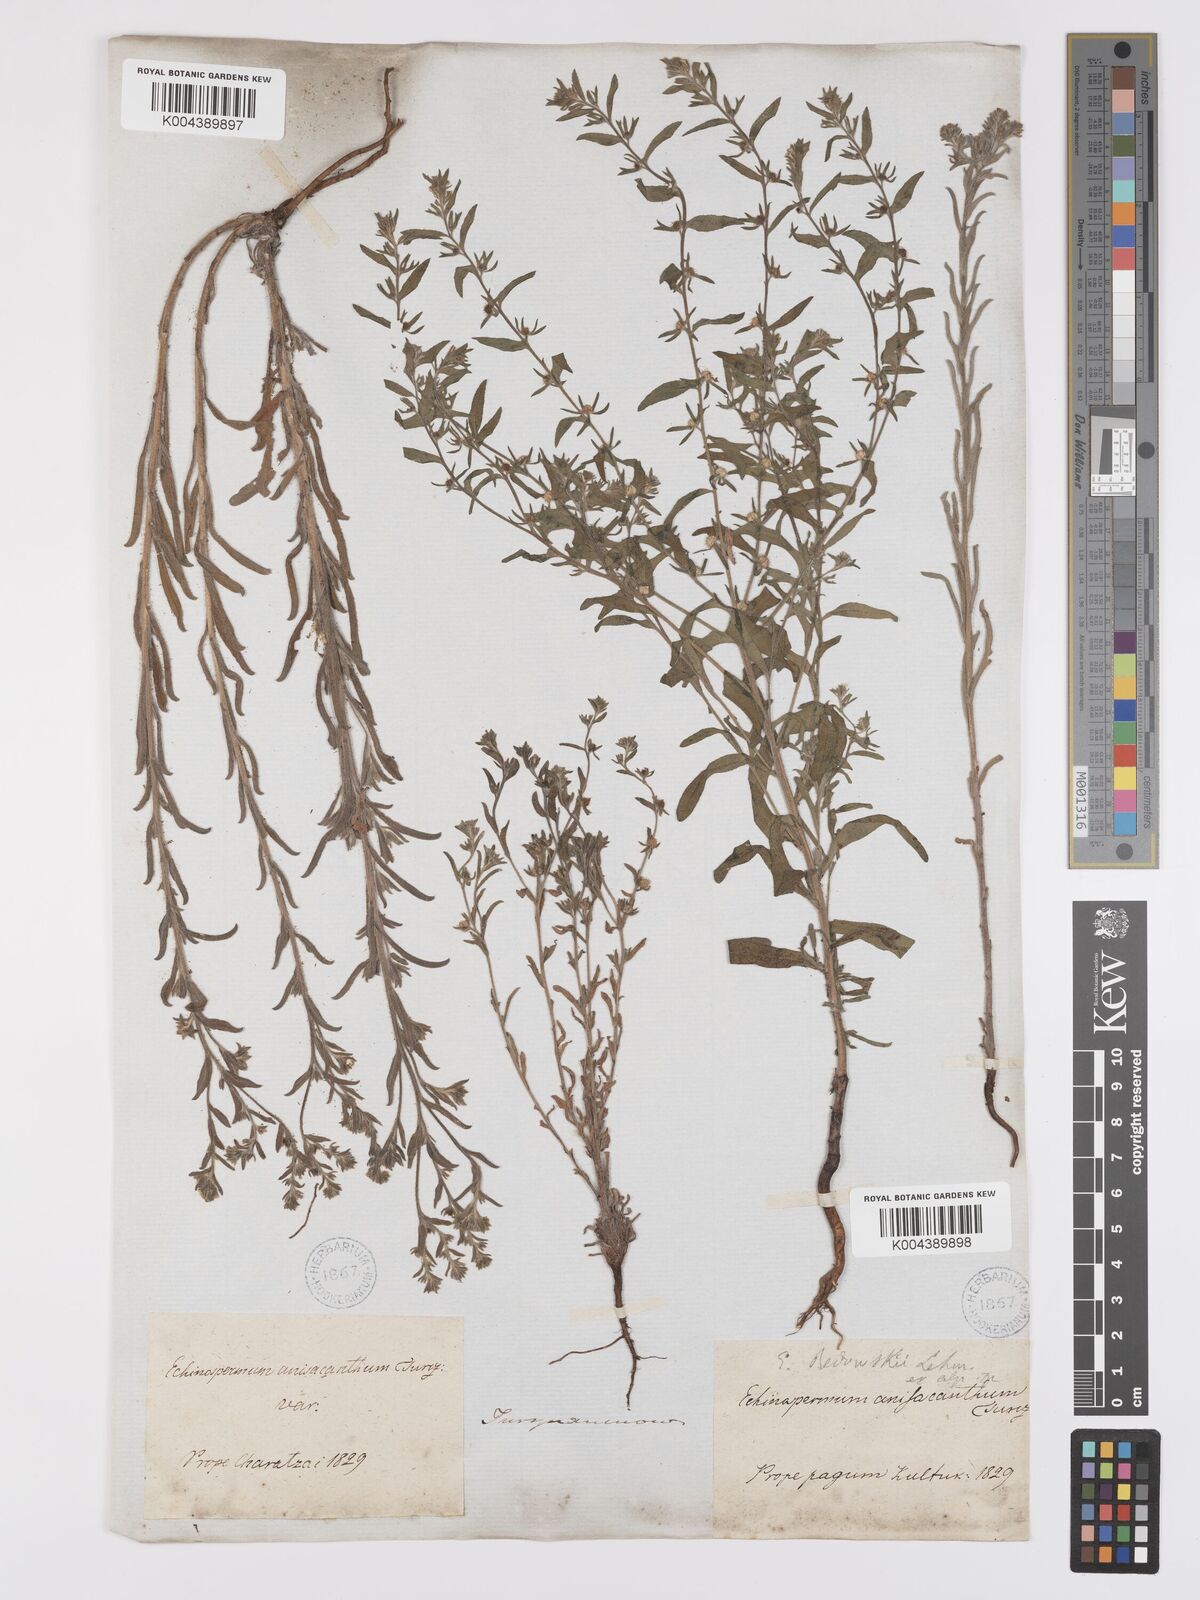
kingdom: Plantae
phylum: Tracheophyta
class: Magnoliopsida
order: Boraginales
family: Boraginaceae
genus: Lappula
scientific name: Lappula redowskii
